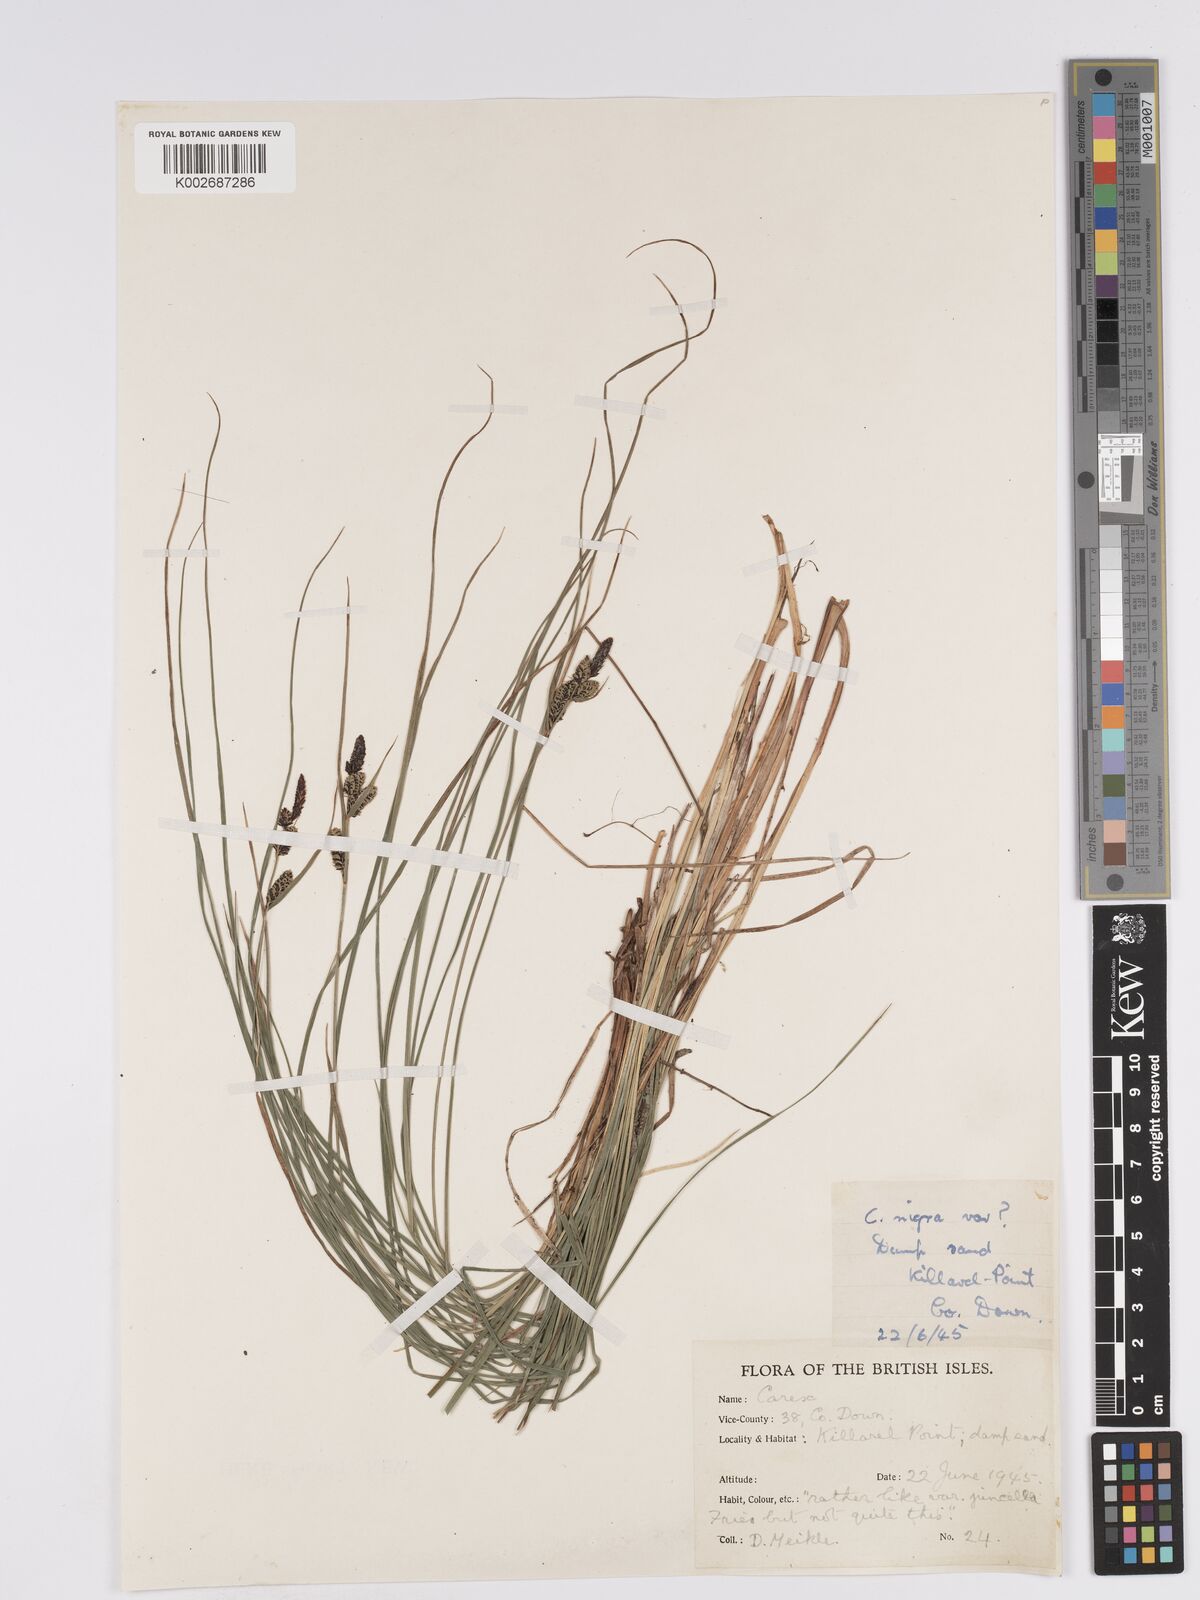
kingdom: Plantae
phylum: Tracheophyta
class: Liliopsida
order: Poales
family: Cyperaceae
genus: Carex
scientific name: Carex nigra
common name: Common sedge
